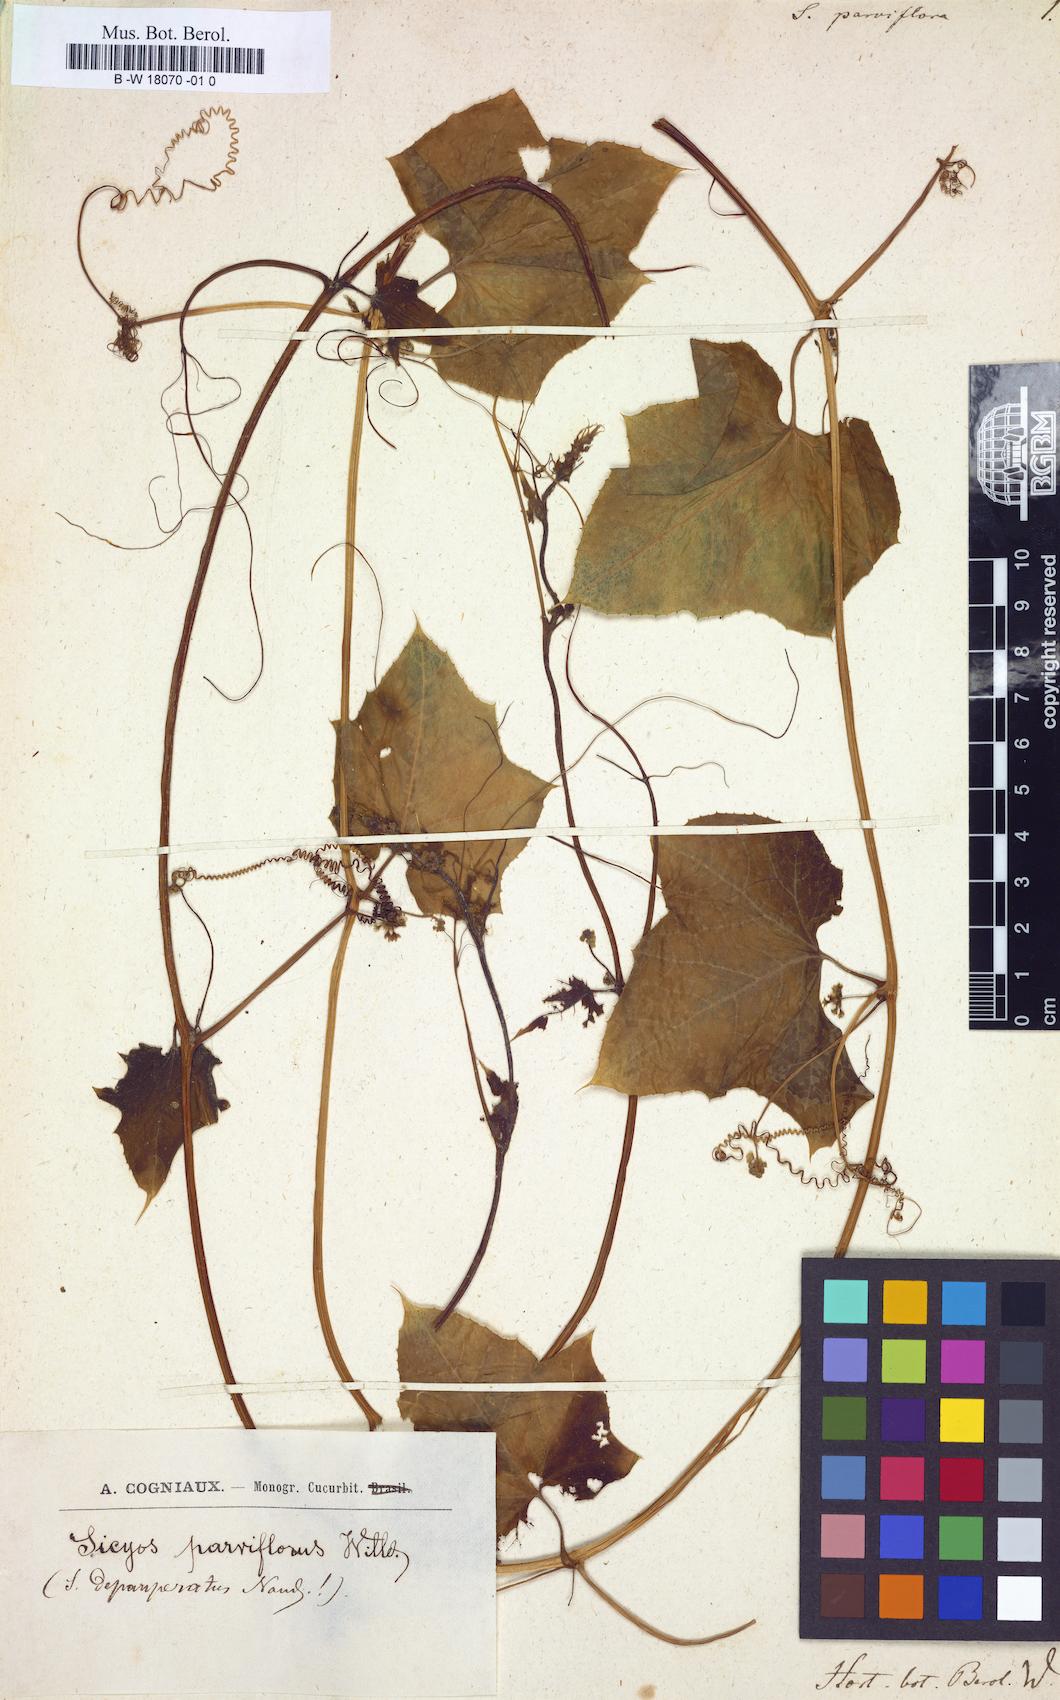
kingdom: Plantae
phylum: Tracheophyta
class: Magnoliopsida
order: Cucurbitales
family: Cucurbitaceae
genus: Sicyos
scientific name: Sicyos parviflorus
